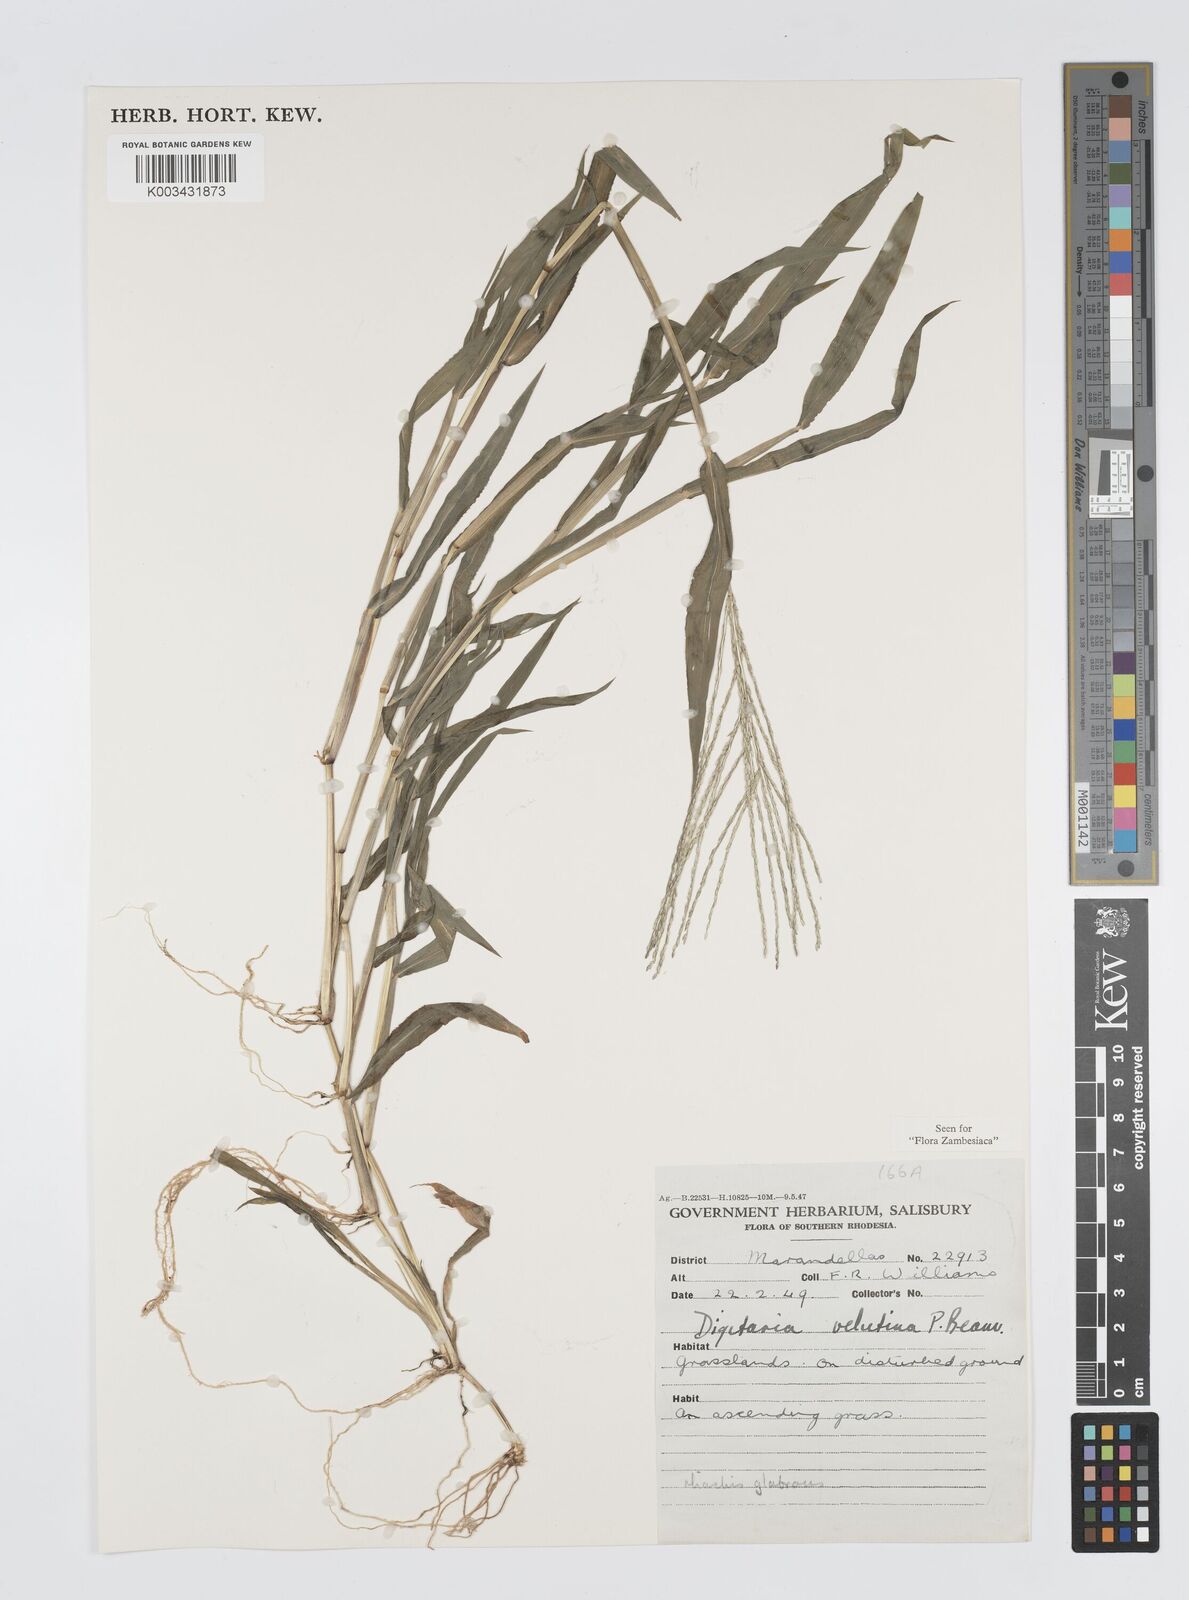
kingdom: Plantae
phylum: Tracheophyta
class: Liliopsida
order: Poales
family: Poaceae
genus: Digitaria
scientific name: Digitaria velutina
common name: Long-plume finger grass
